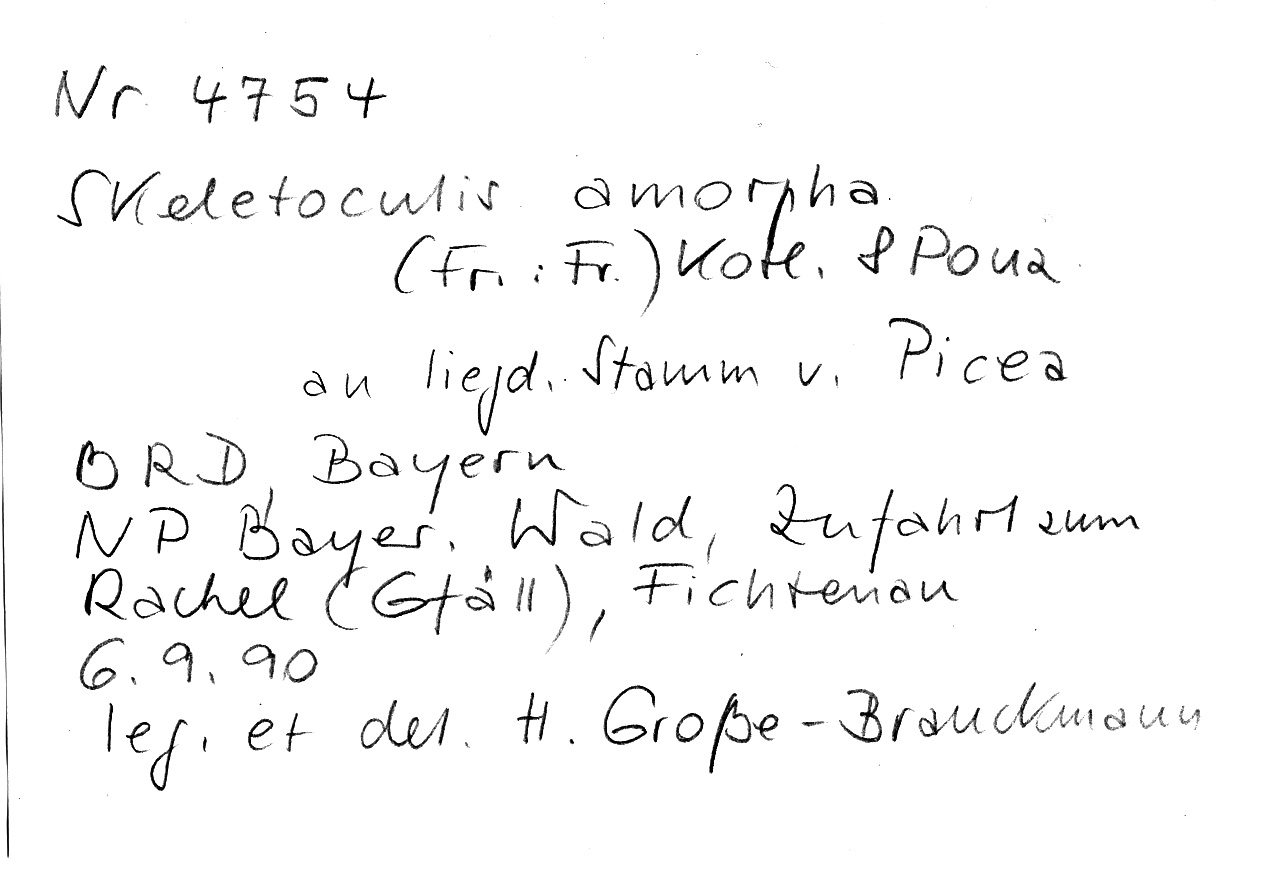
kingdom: Plantae
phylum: Tracheophyta
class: Pinopsida
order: Pinales
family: Pinaceae
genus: Picea
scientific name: Picea
